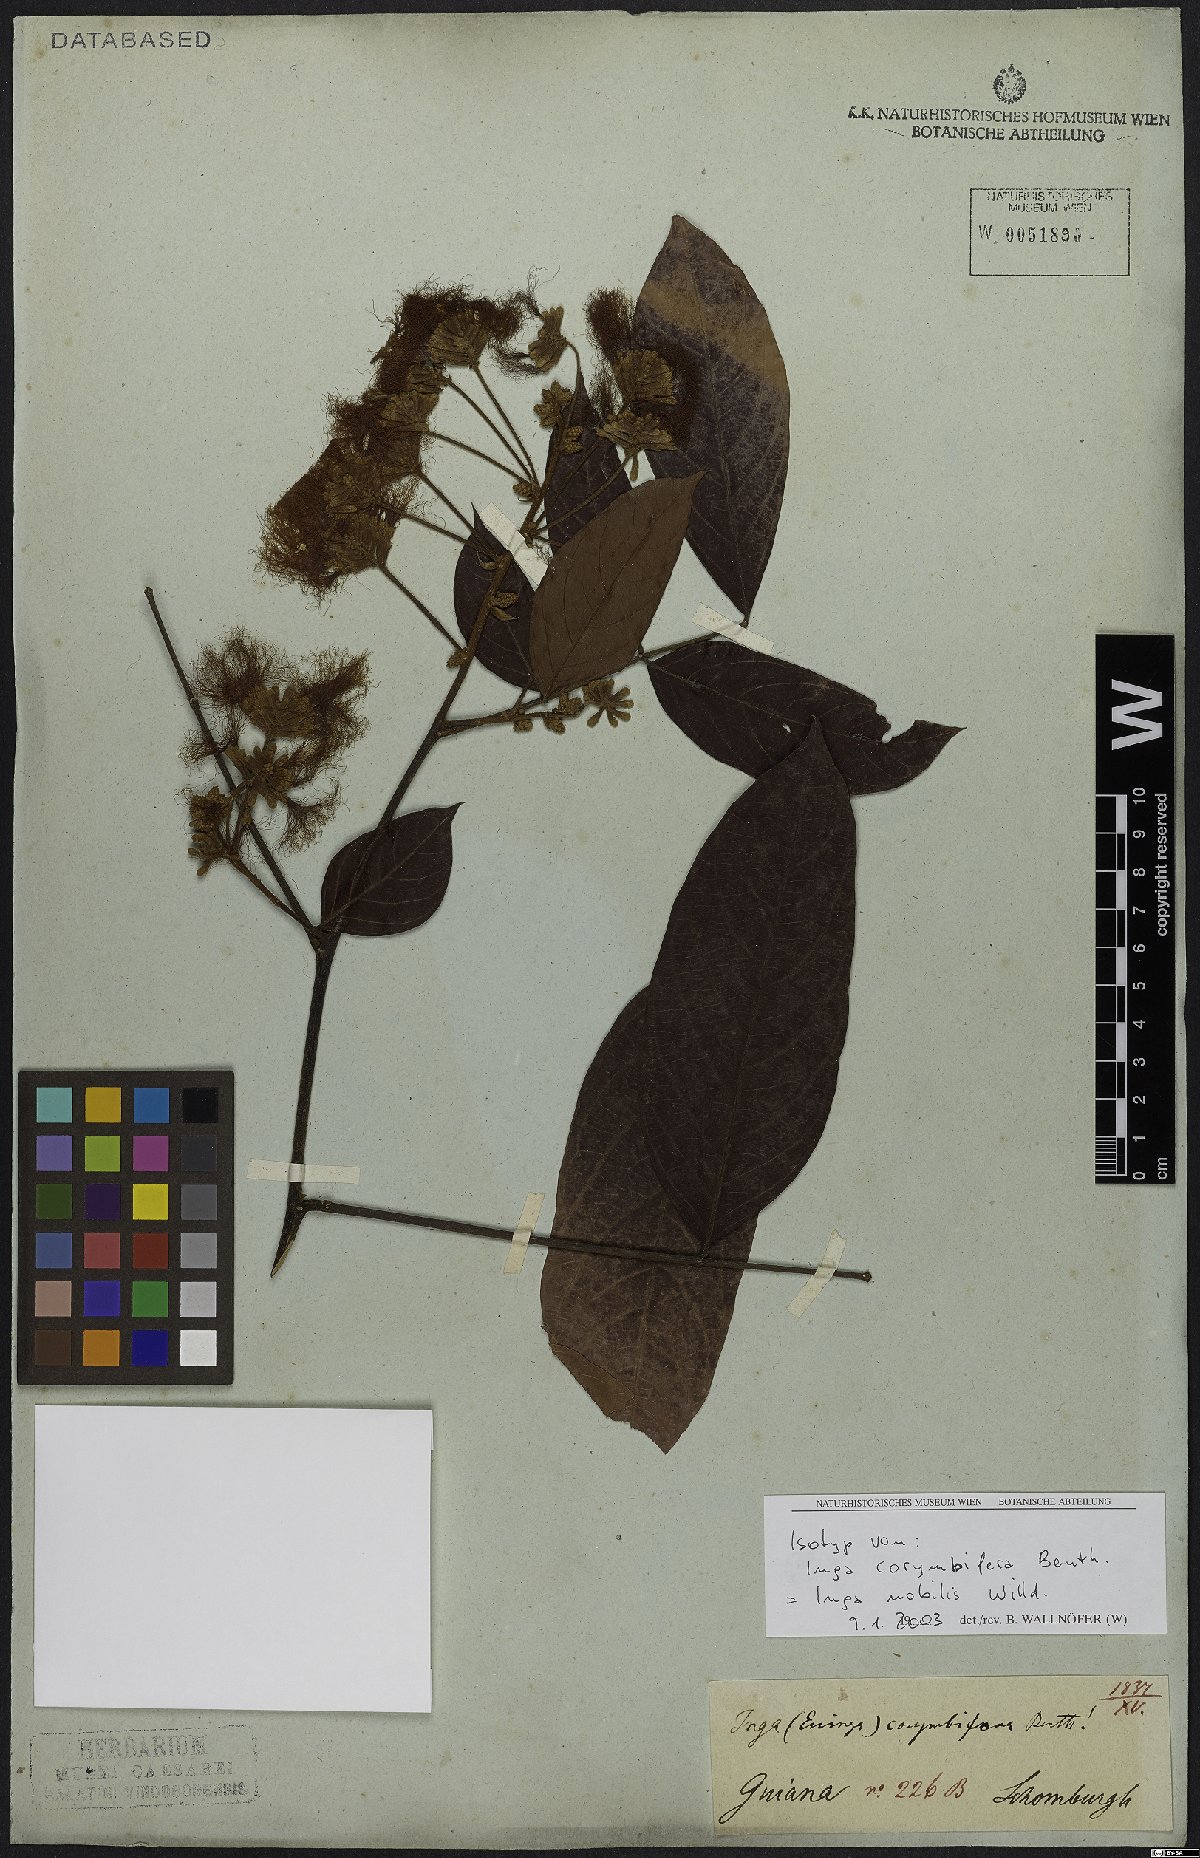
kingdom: Plantae
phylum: Tracheophyta
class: Magnoliopsida
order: Fabales
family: Fabaceae
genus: Inga
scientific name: Inga nobilis
